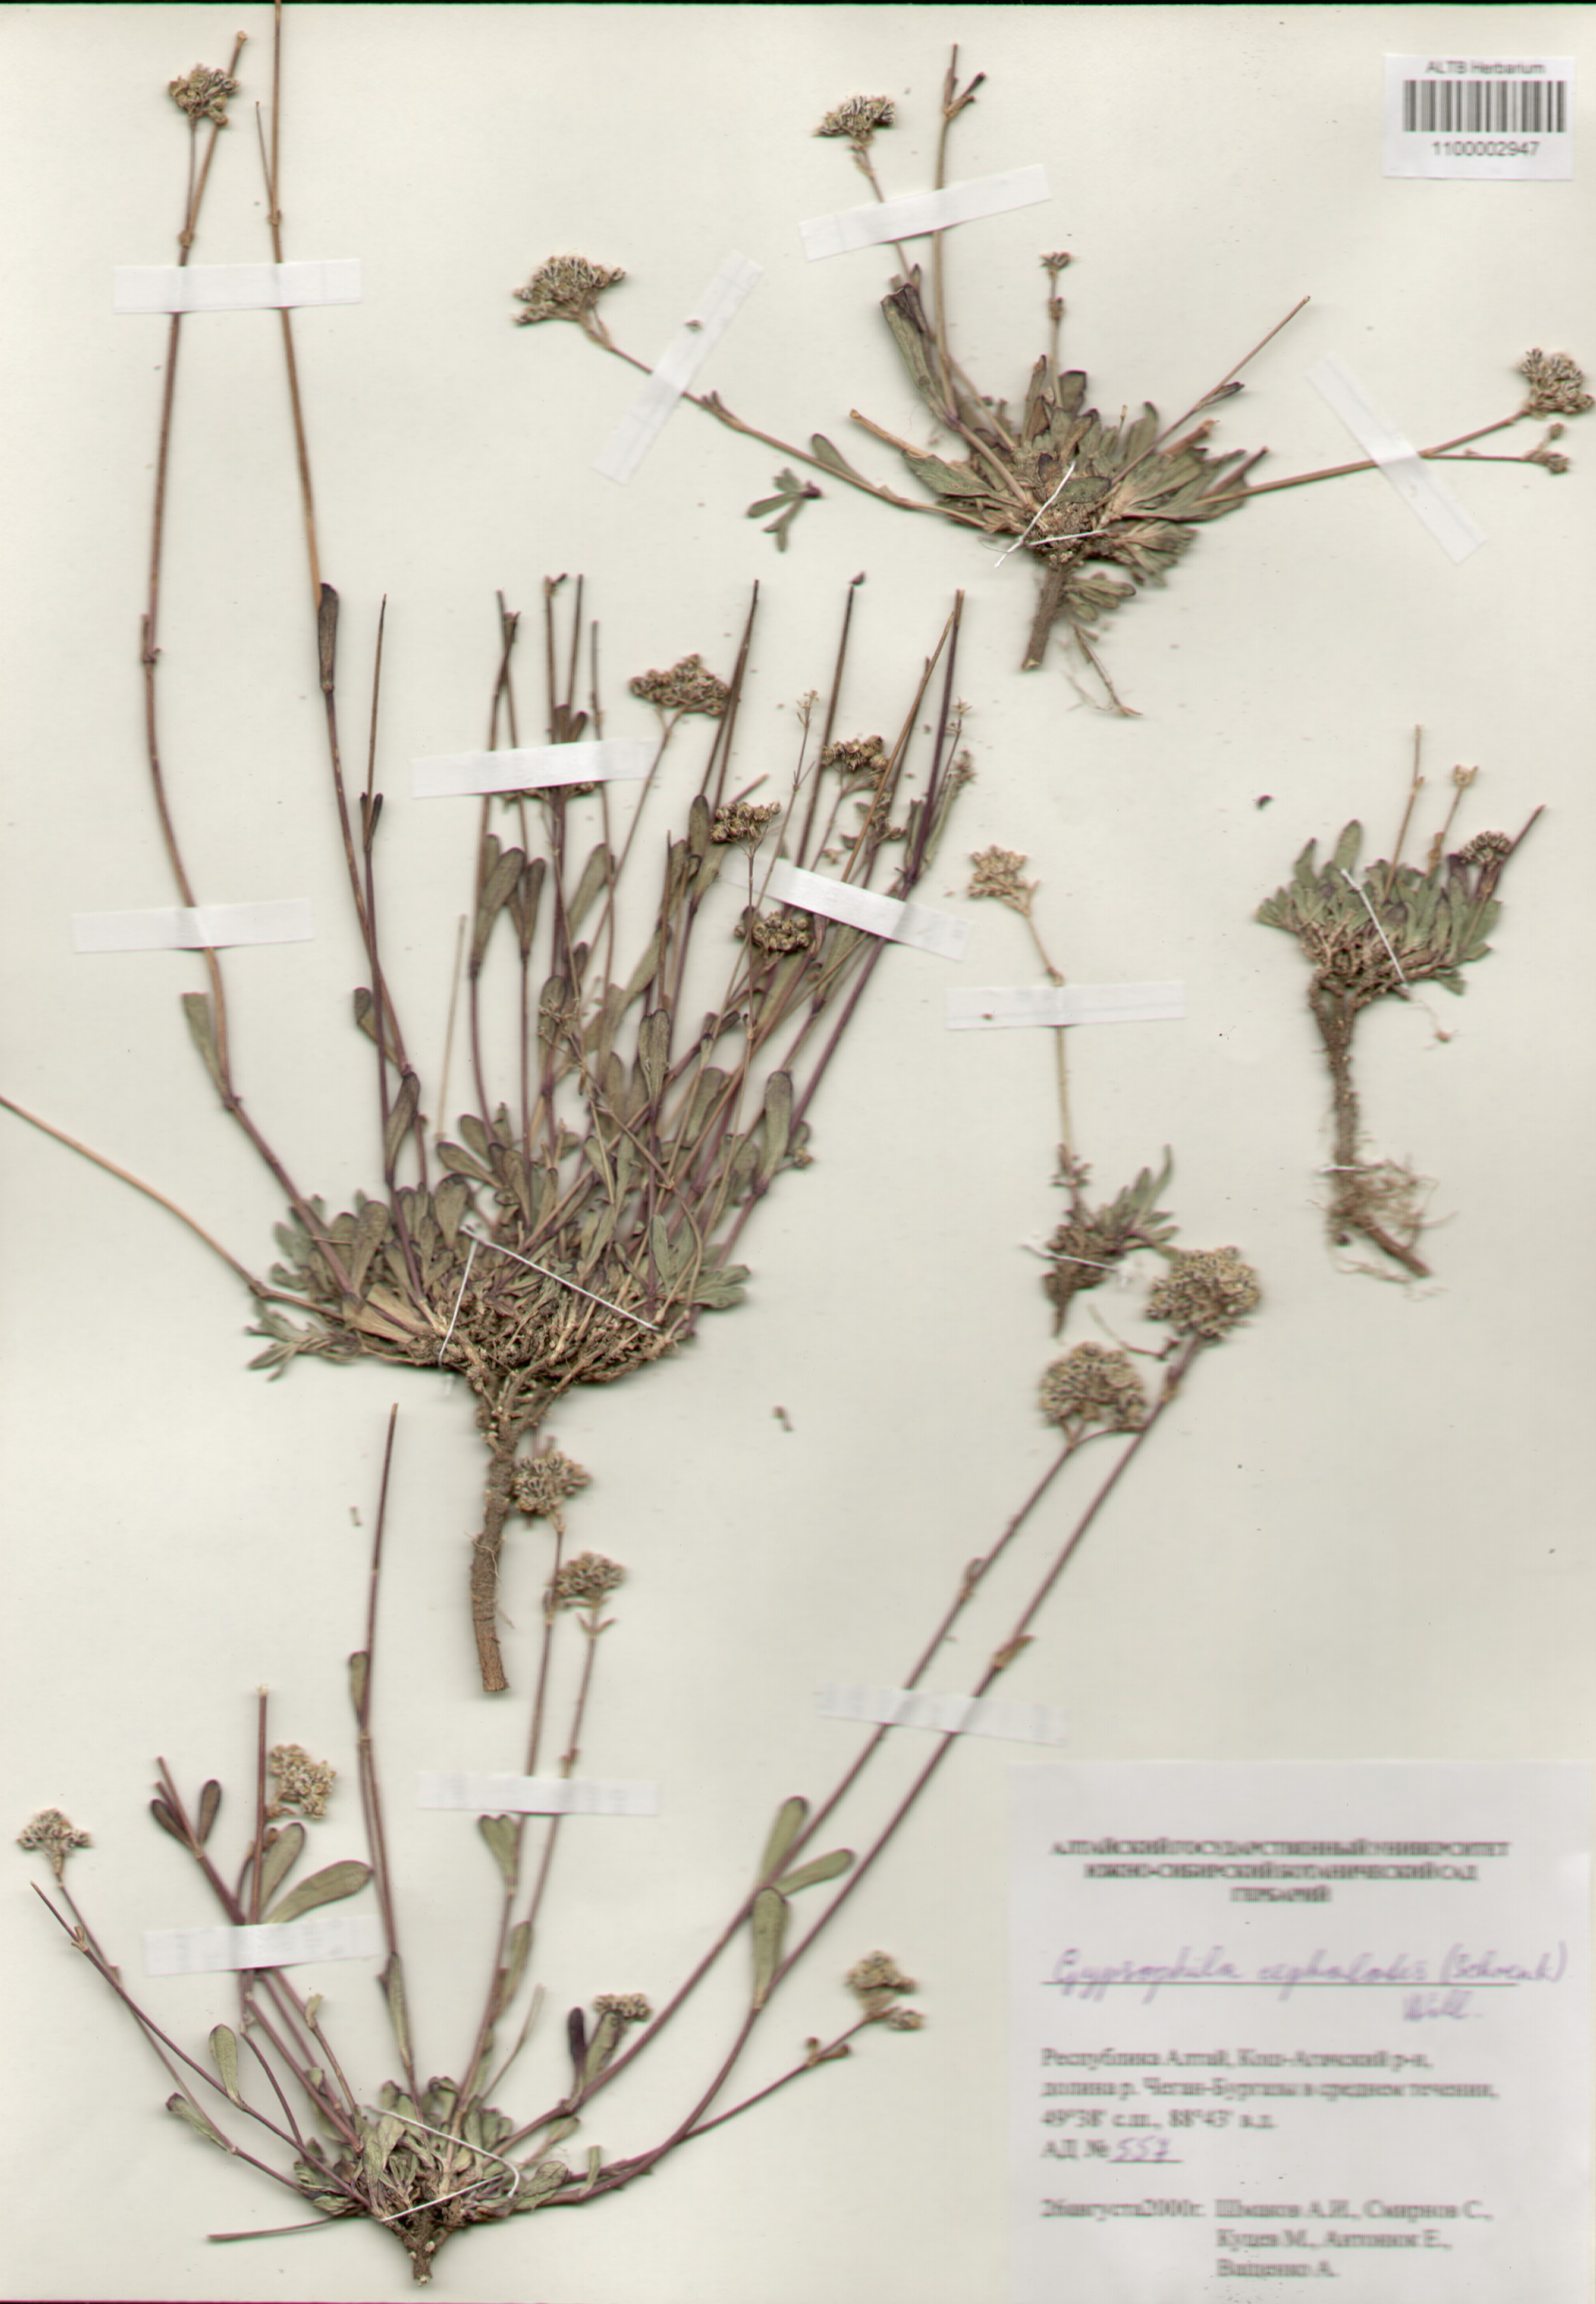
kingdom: Plantae
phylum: Tracheophyta
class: Magnoliopsida
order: Caryophyllales
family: Caryophyllaceae
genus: Gypsophila
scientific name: Gypsophila cephalotes
